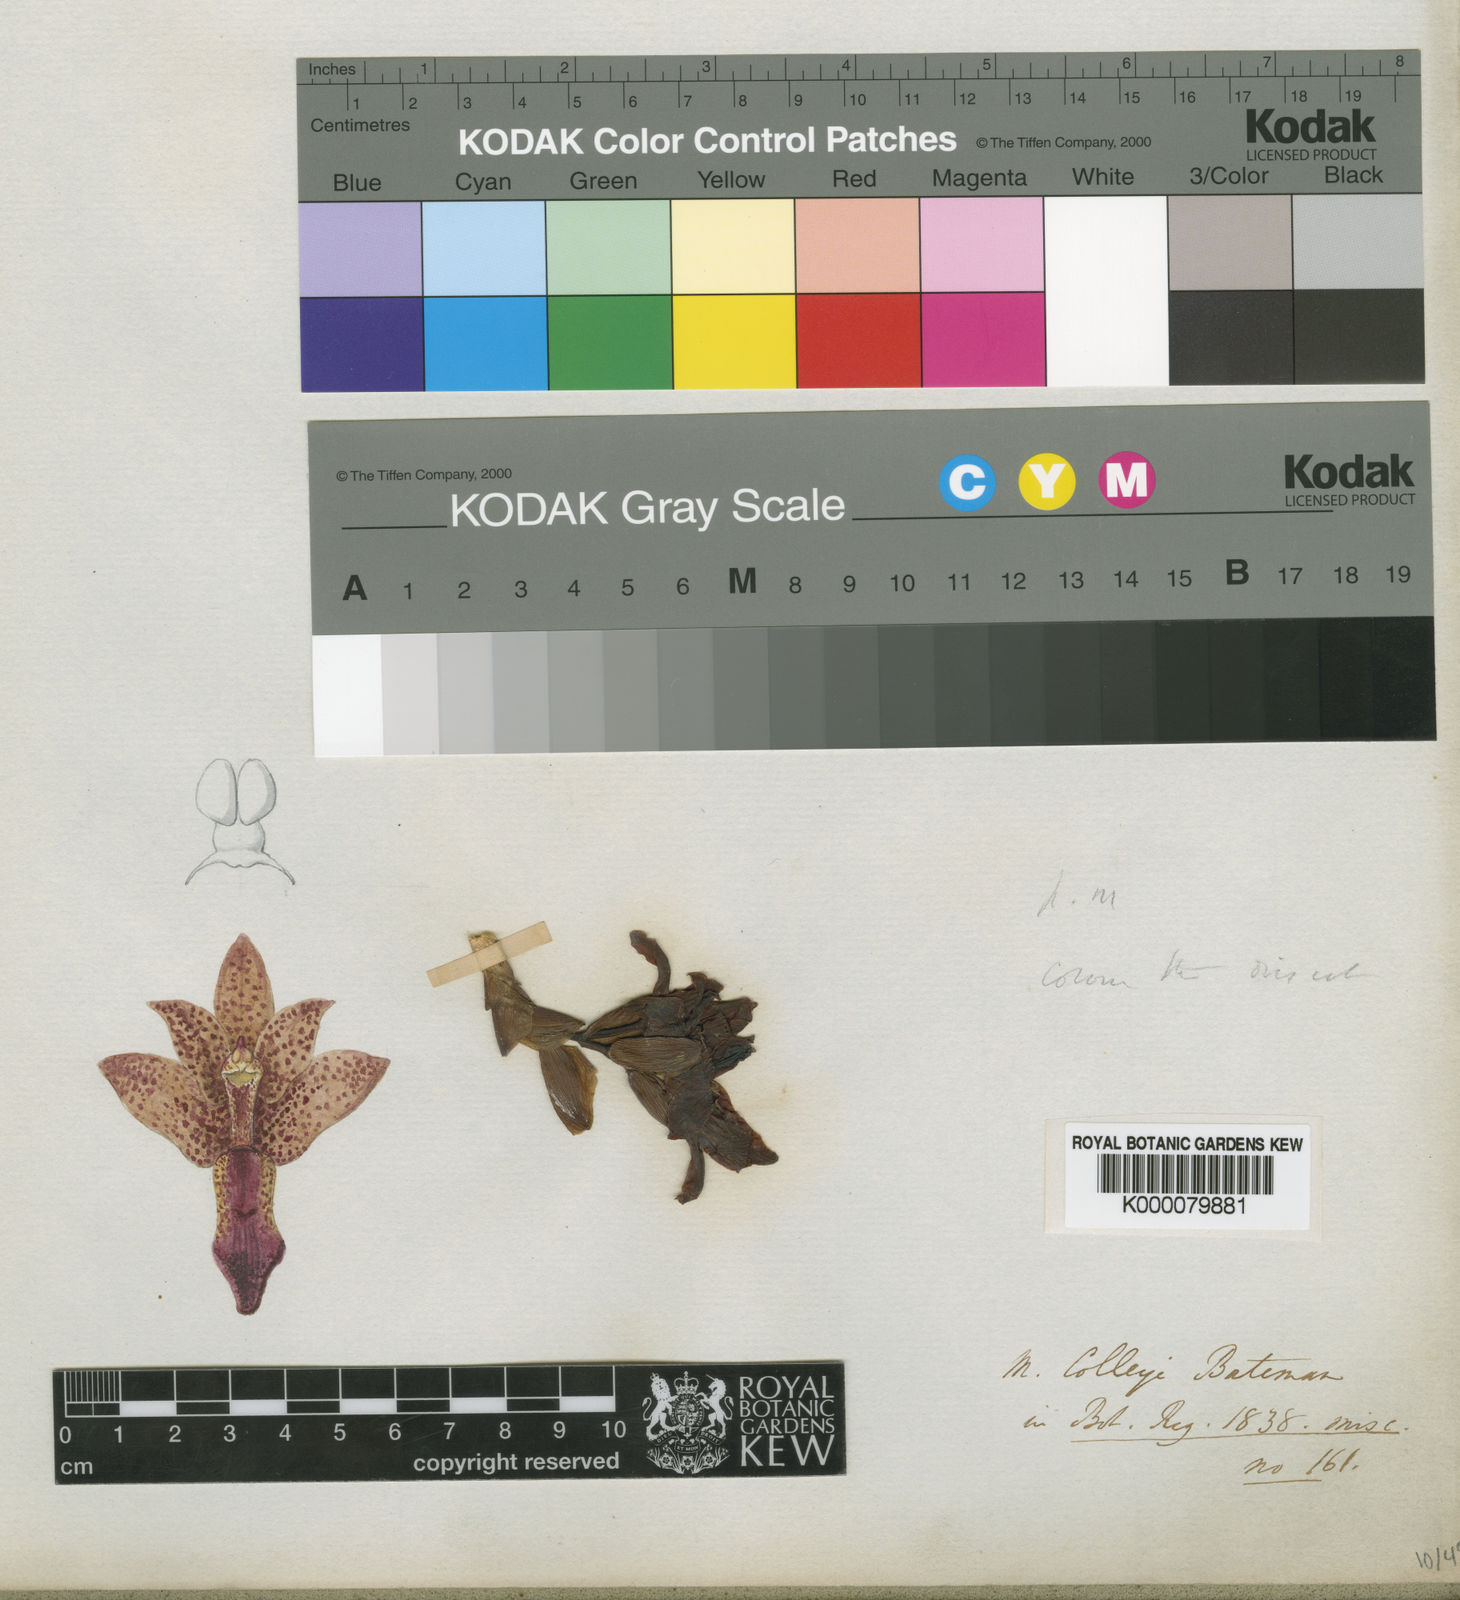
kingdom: Plantae
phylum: Tracheophyta
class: Liliopsida
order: Asparagales
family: Orchidaceae
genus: Xylobium
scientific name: Xylobium colleyi
